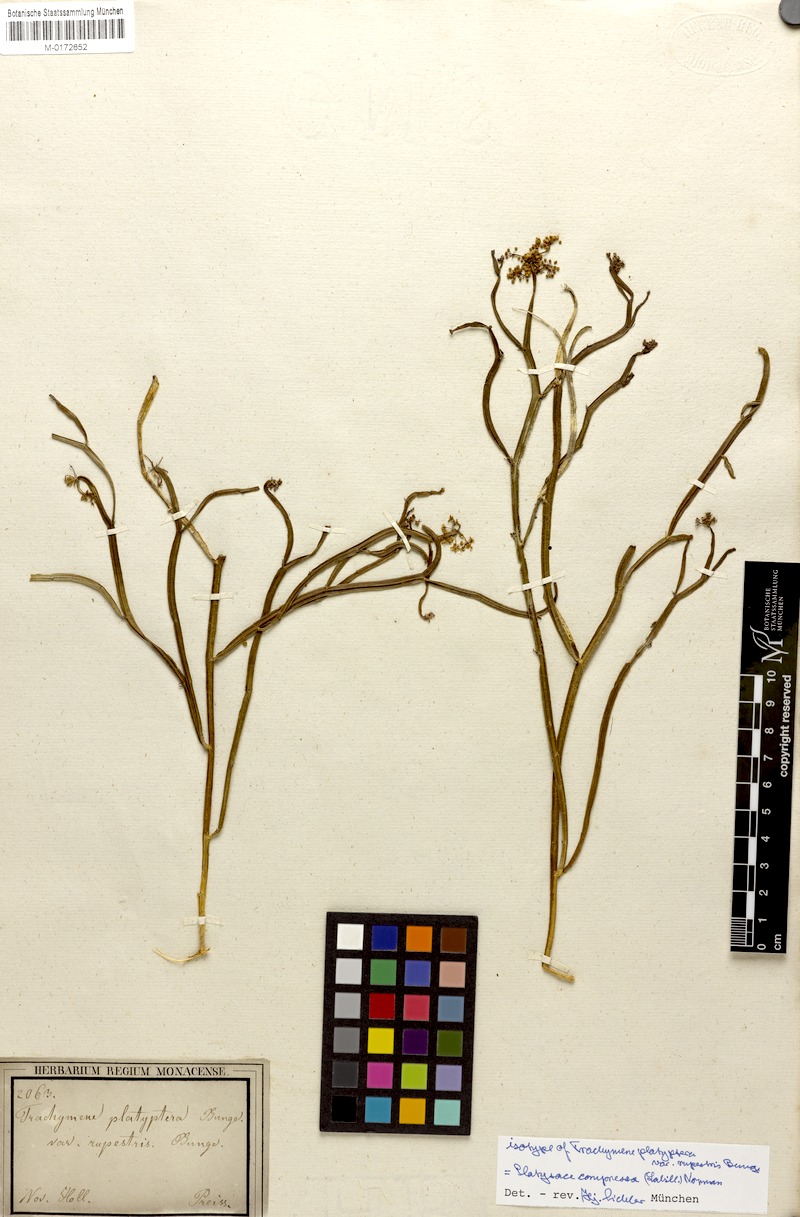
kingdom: Plantae
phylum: Tracheophyta
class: Magnoliopsida
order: Apiales
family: Apiaceae
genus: Platysace
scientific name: Platysace compressa
